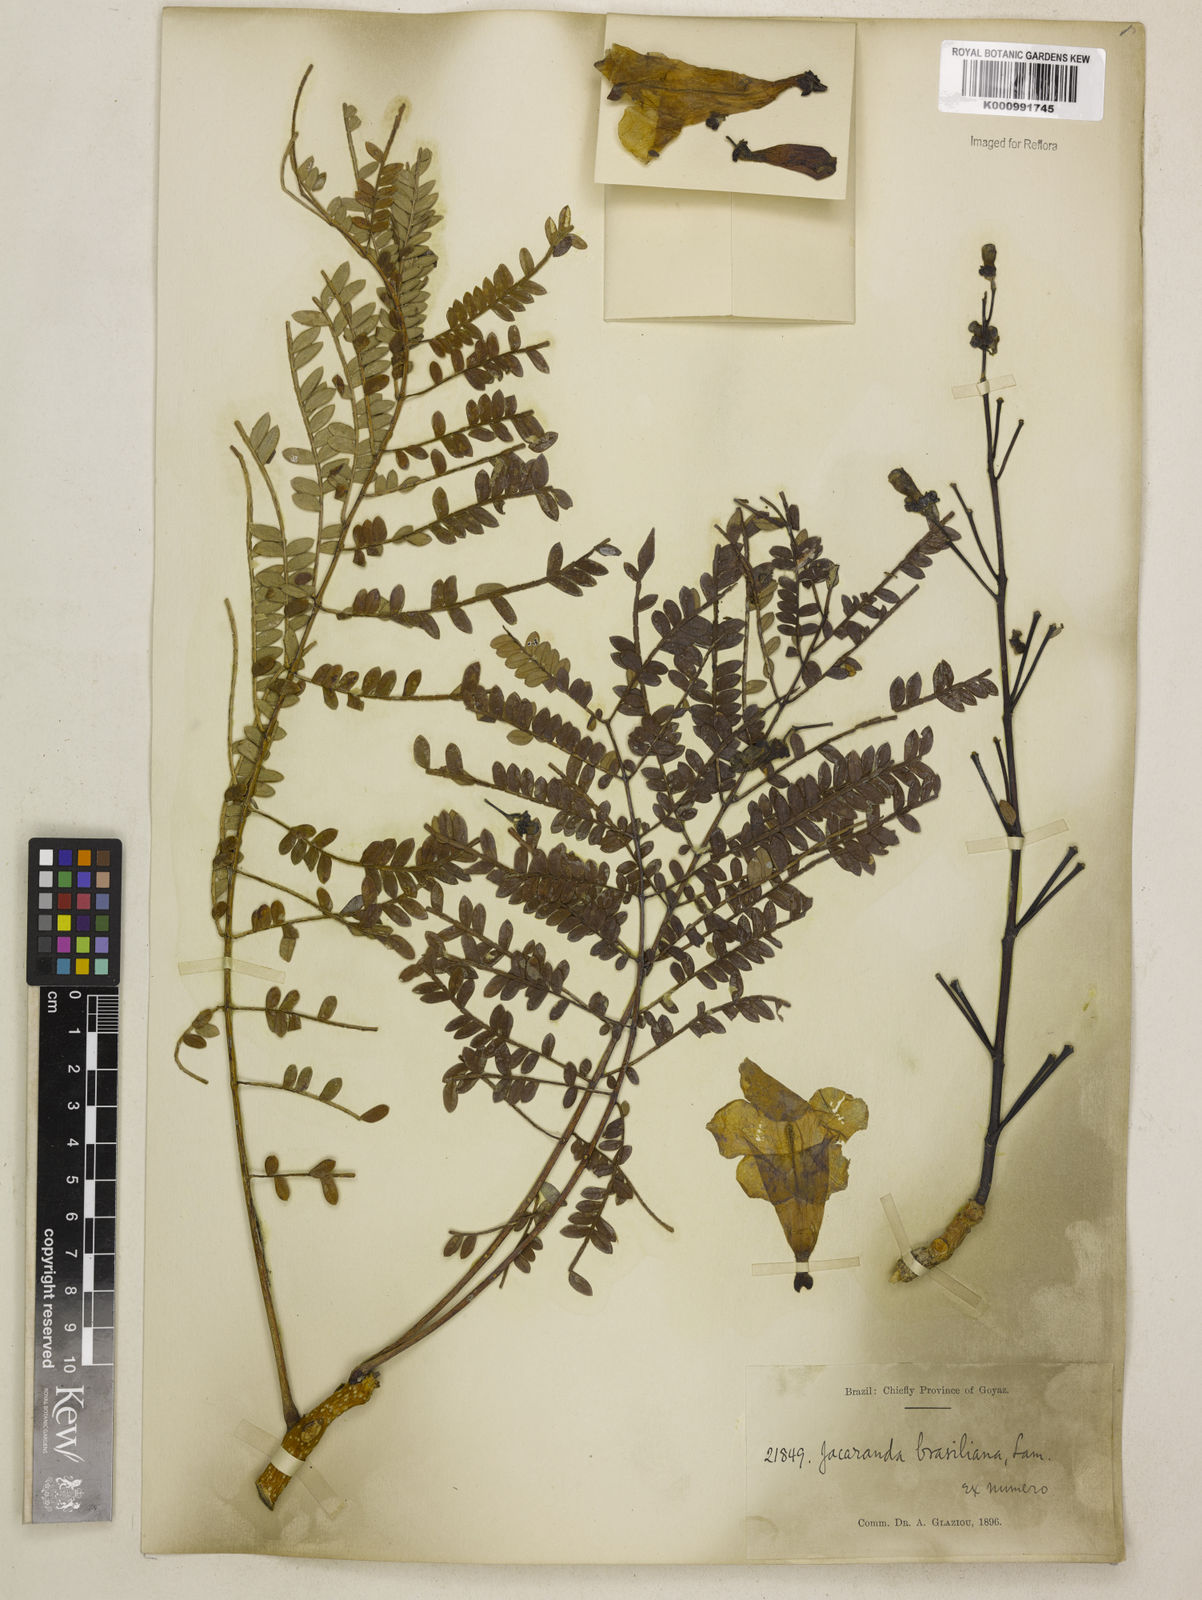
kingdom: Plantae
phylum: Tracheophyta
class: Magnoliopsida
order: Lamiales
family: Bignoniaceae
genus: Jacaranda
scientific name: Jacaranda brasiliana
